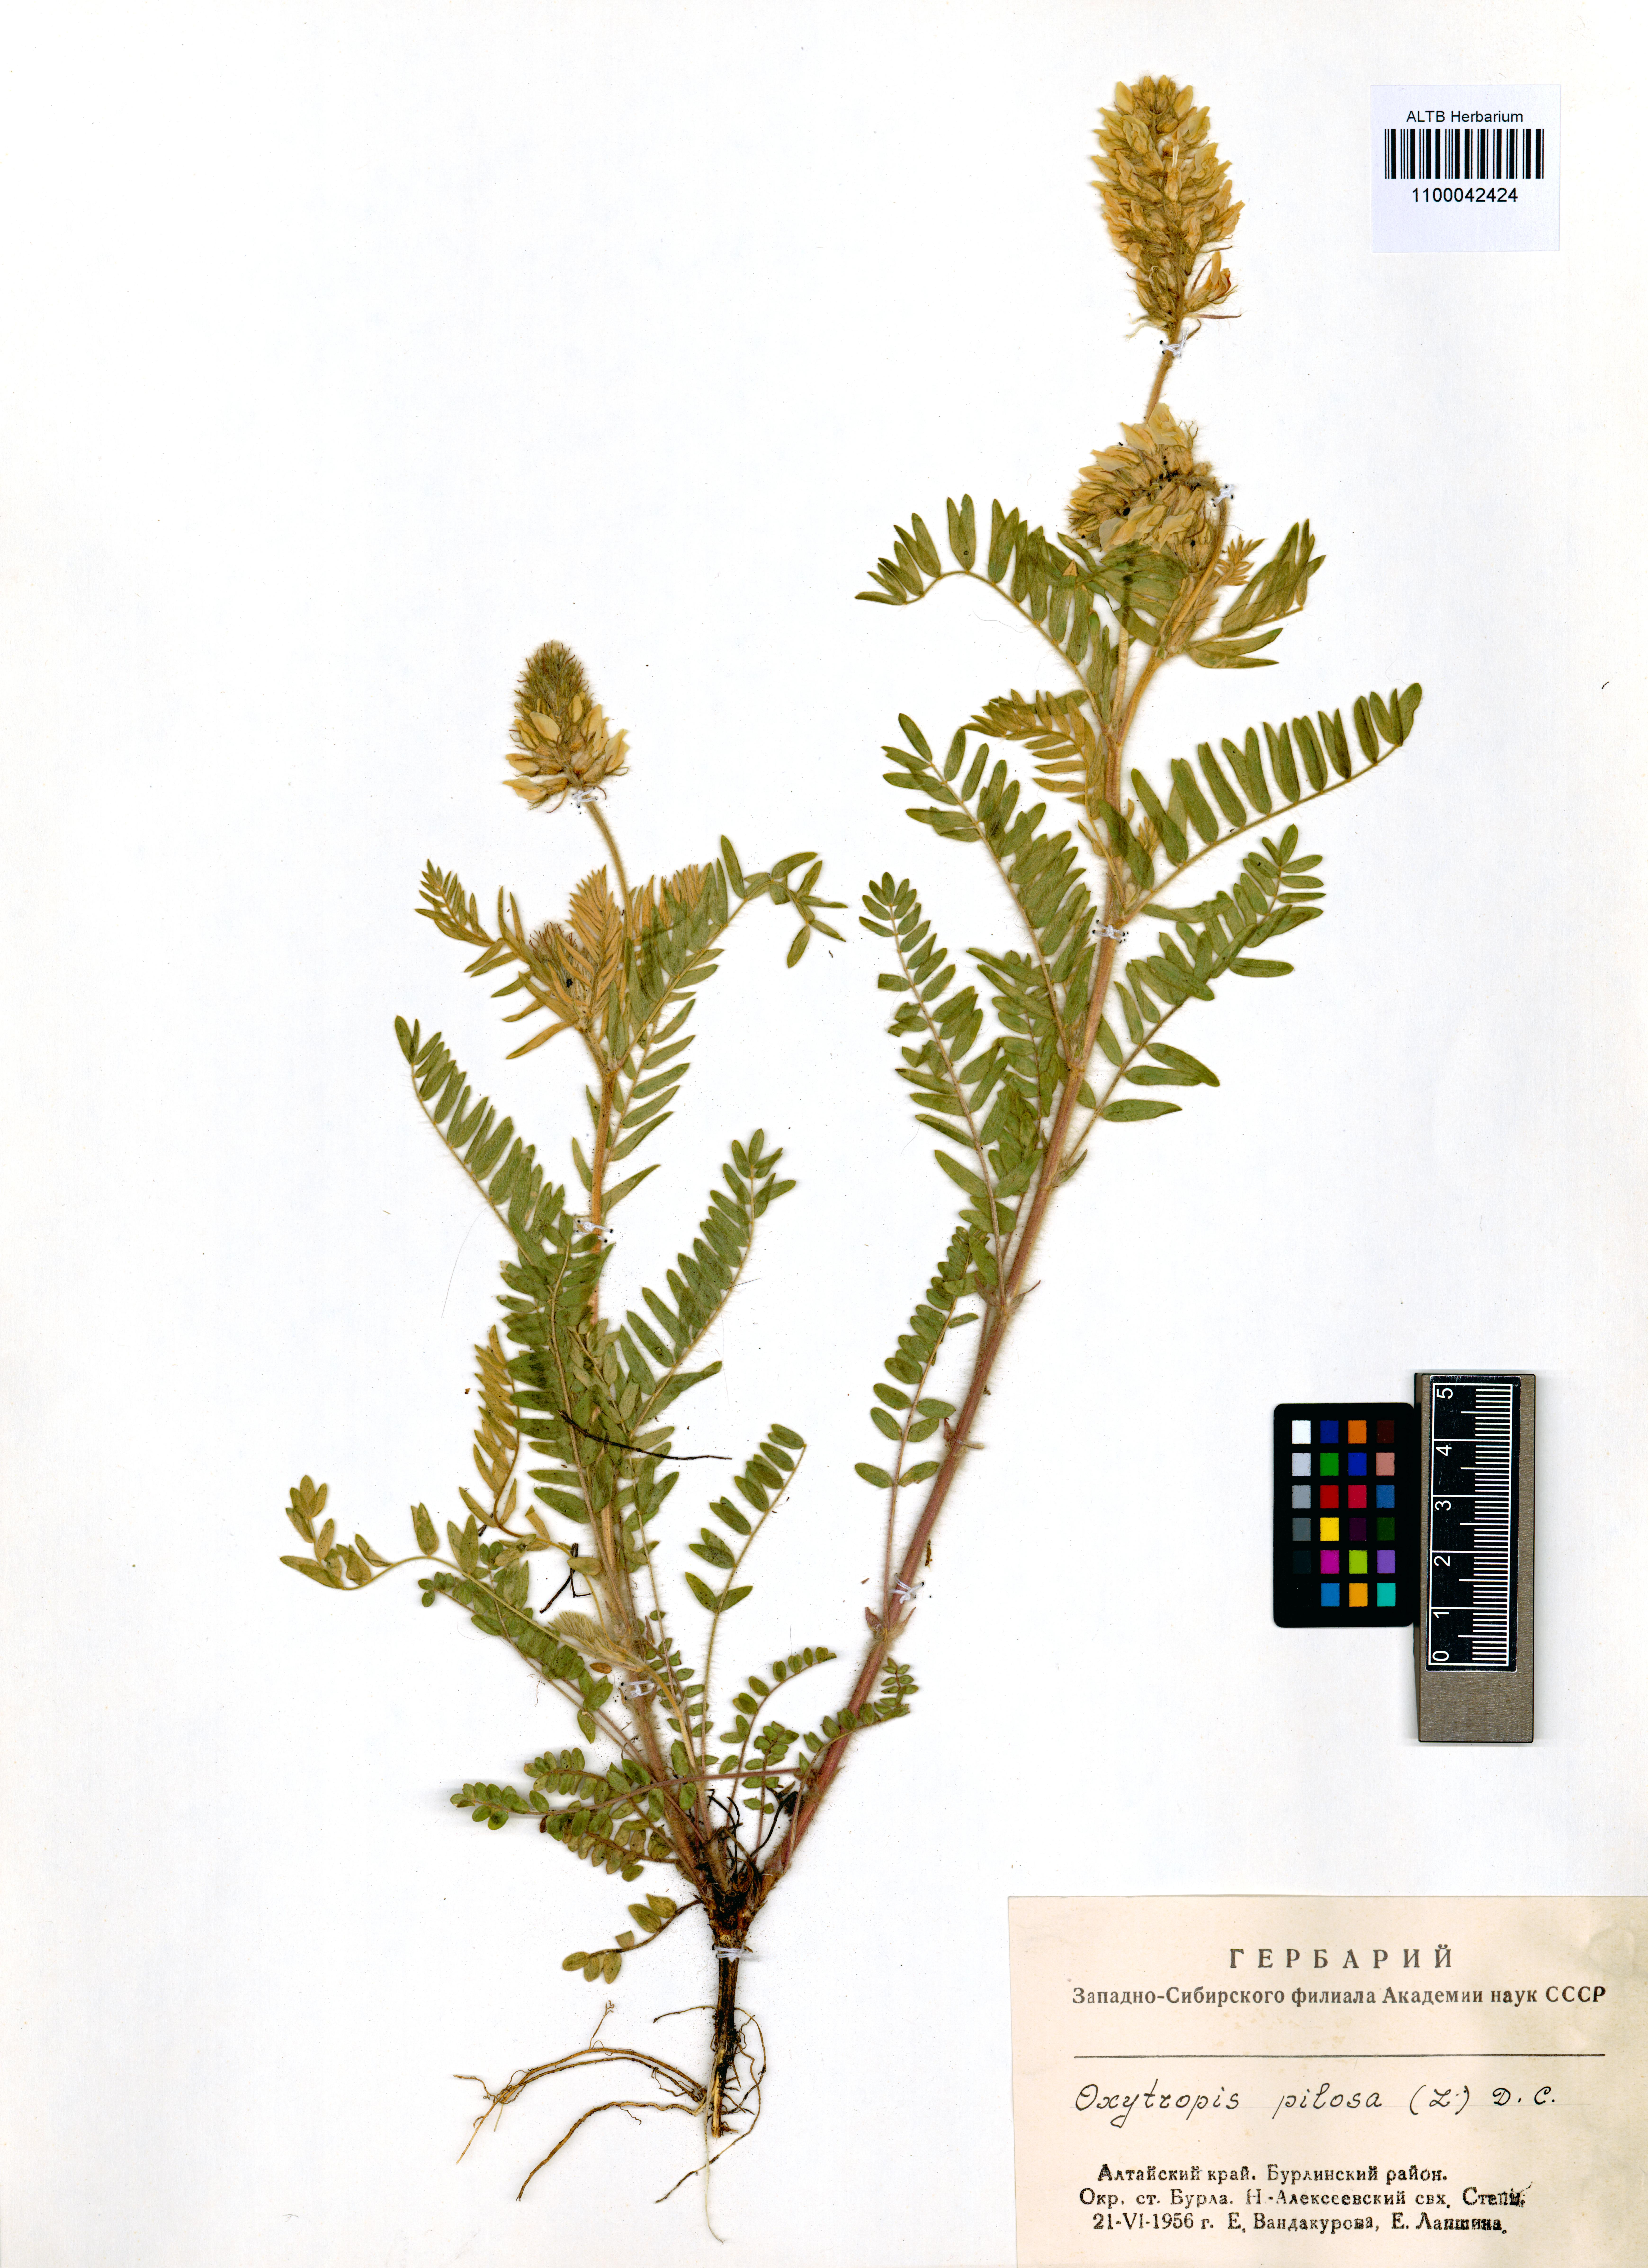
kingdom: Plantae
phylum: Tracheophyta
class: Magnoliopsida
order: Fabales
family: Fabaceae
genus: Oxytropis
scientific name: Oxytropis pilosa
